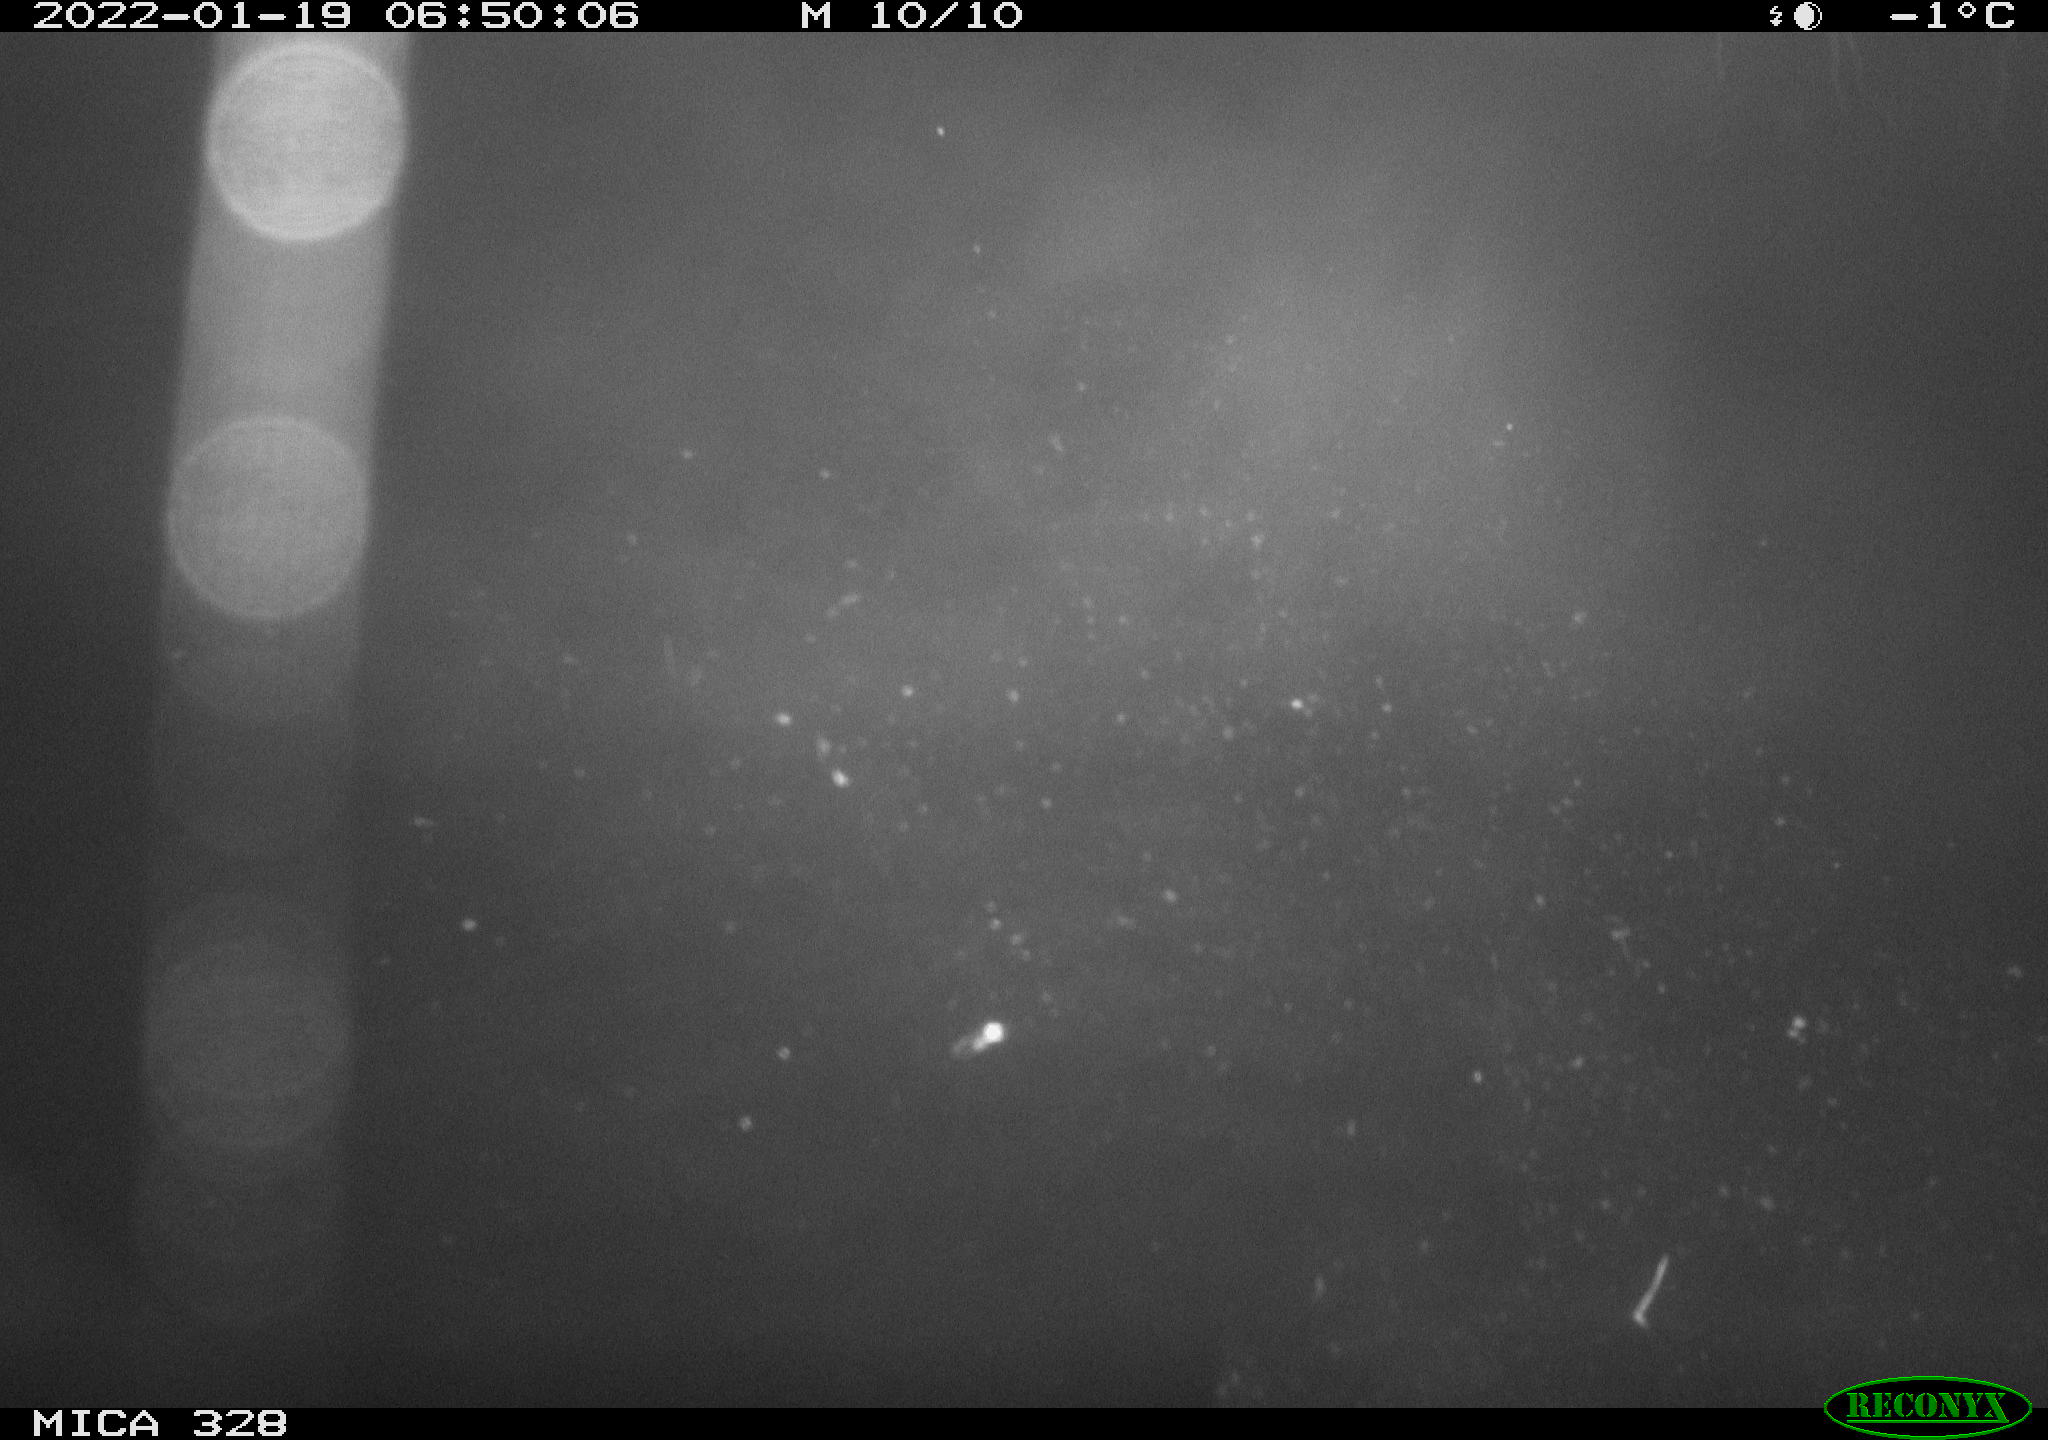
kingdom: Animalia
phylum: Chordata
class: Mammalia
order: Rodentia
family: Cricetidae
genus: Ondatra
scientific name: Ondatra zibethicus
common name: Muskrat
